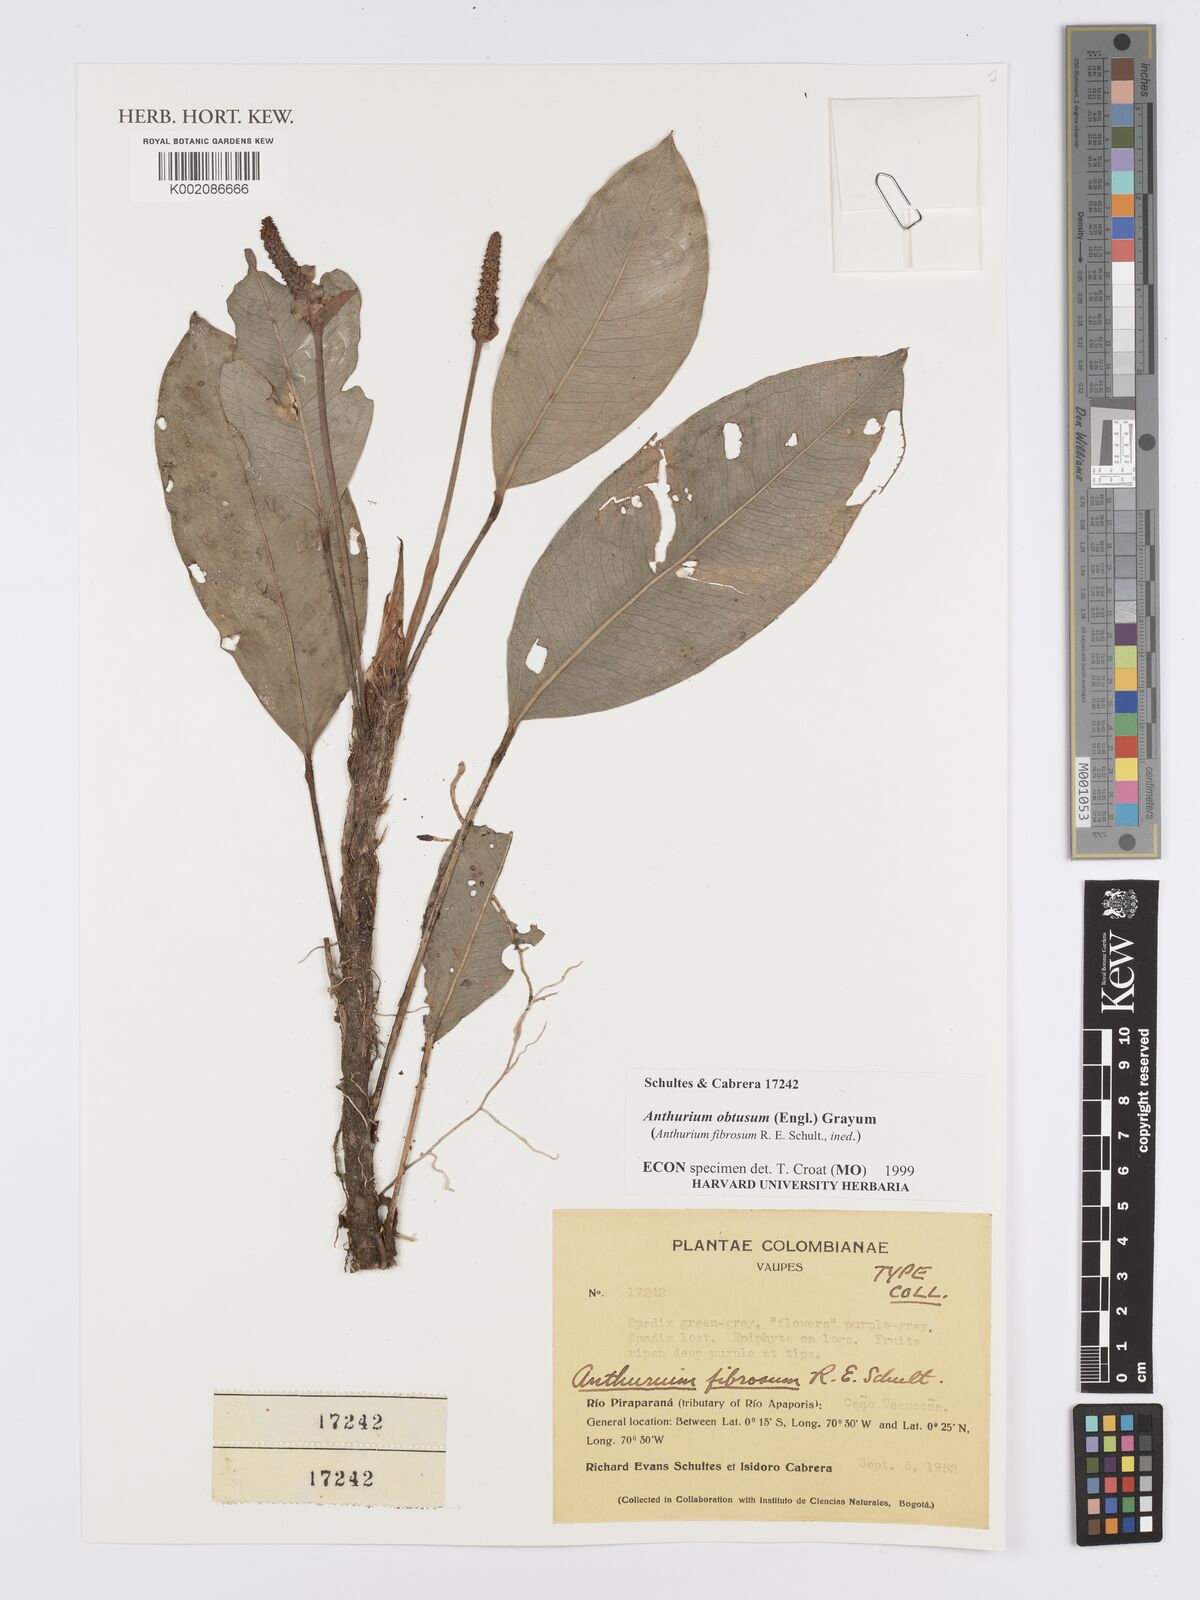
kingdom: Plantae
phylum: Tracheophyta
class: Liliopsida
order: Alismatales
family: Araceae
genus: Anthurium
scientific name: Anthurium obtusum
